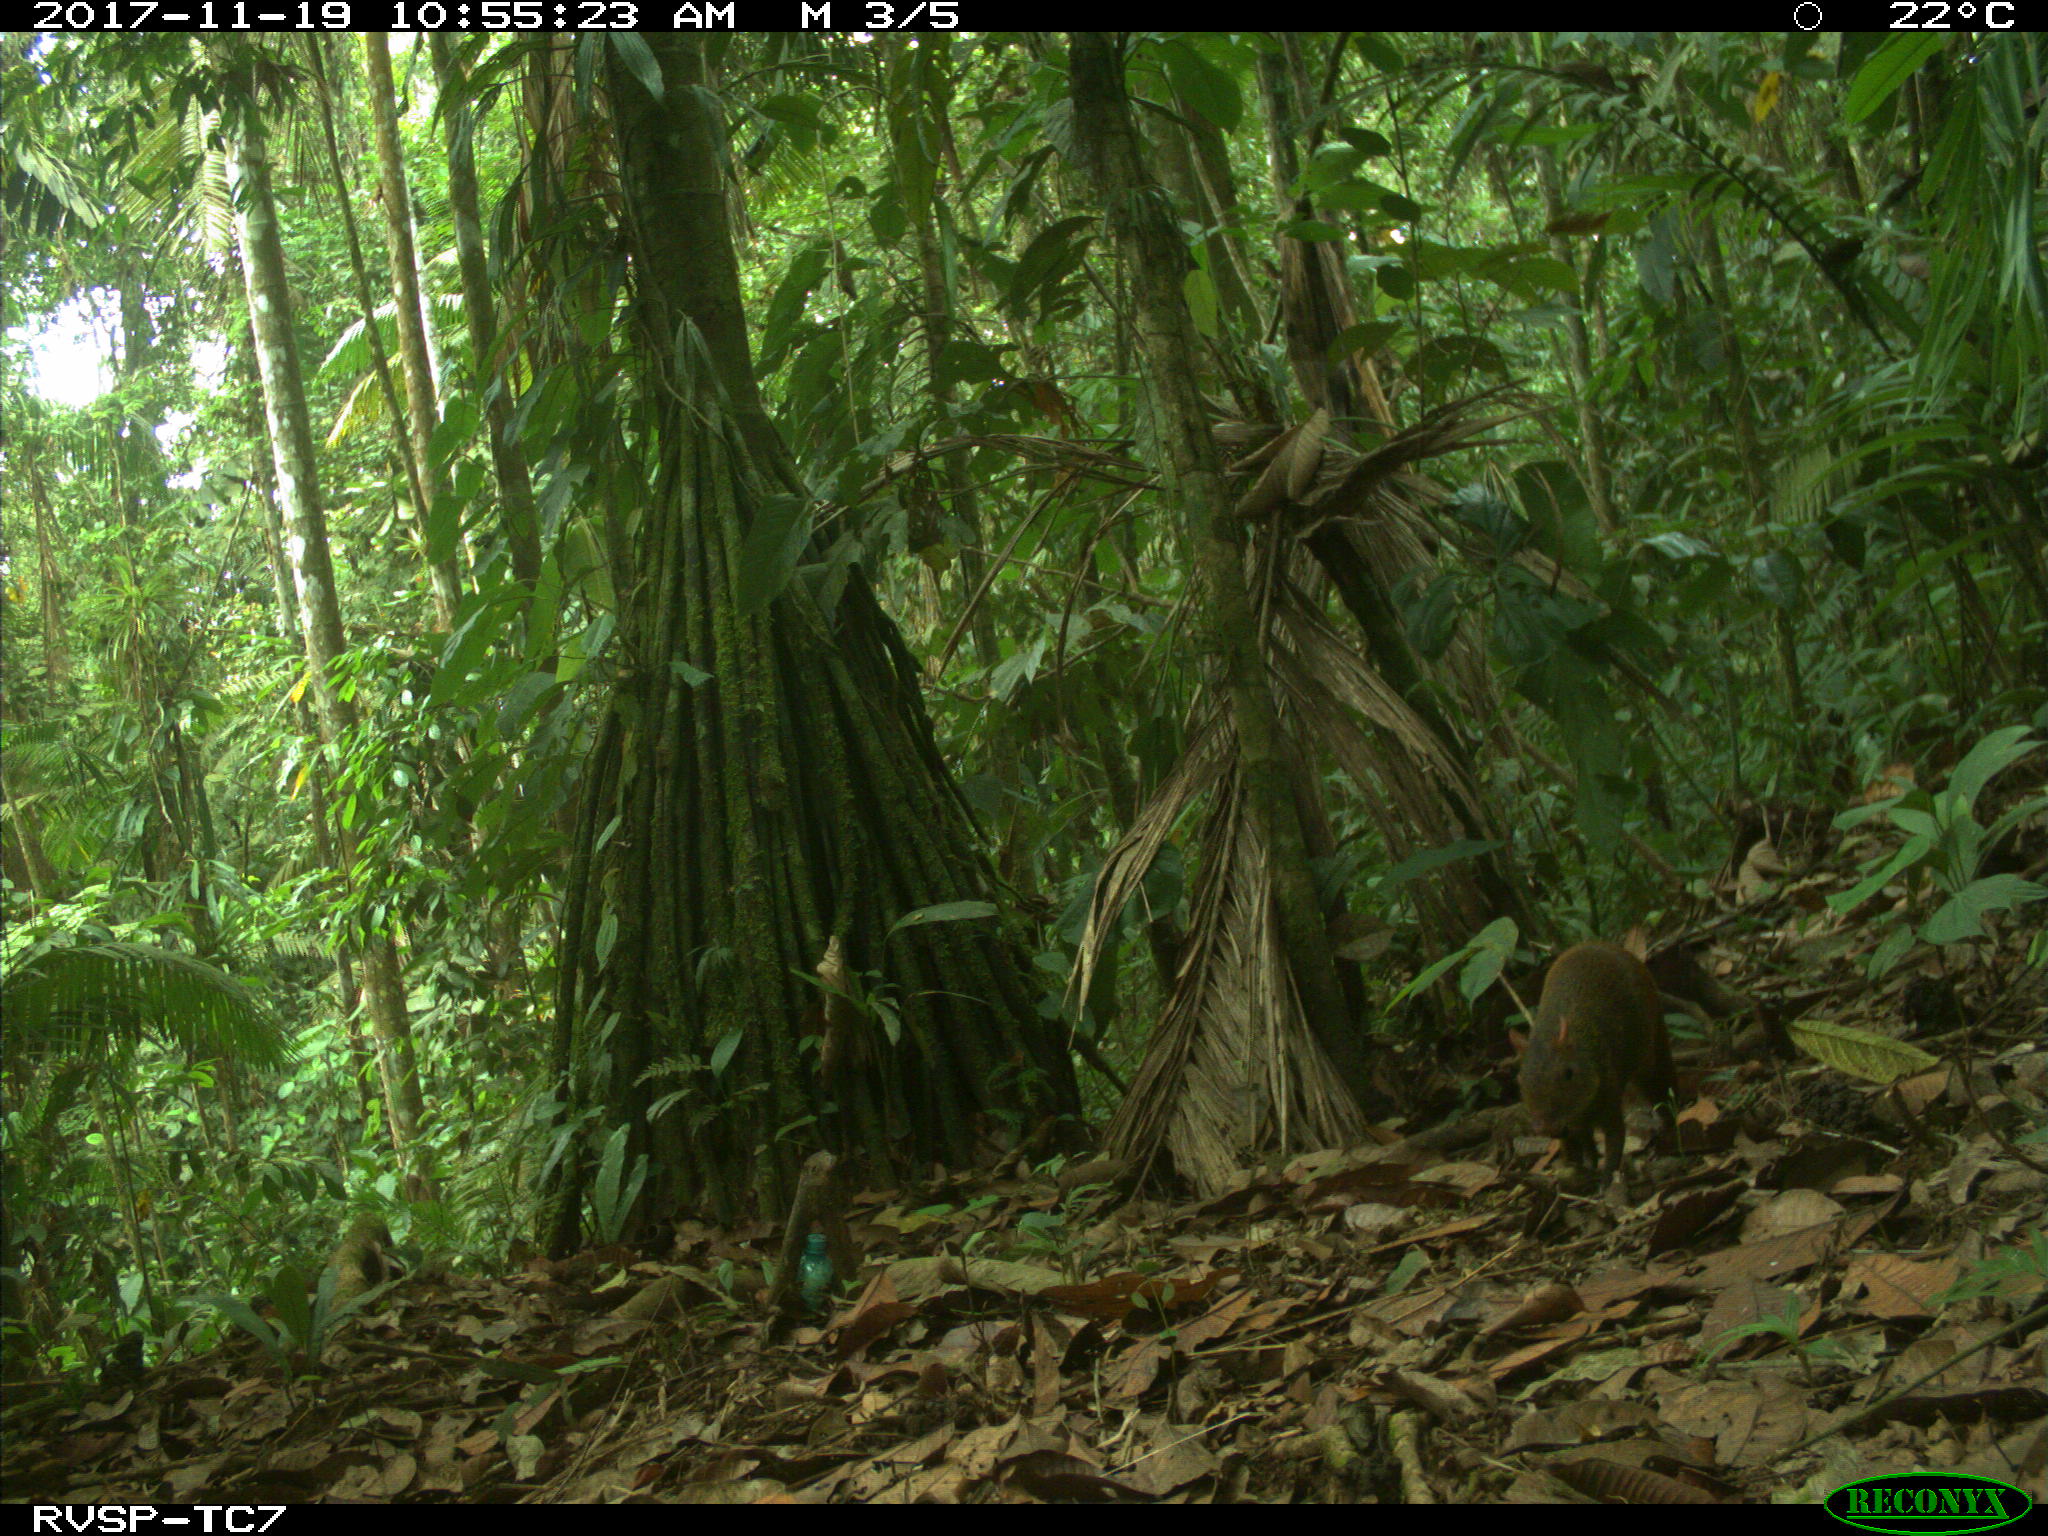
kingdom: Animalia
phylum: Chordata
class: Mammalia
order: Rodentia
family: Dasyproctidae
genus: Dasyprocta
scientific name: Dasyprocta punctata
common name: Central american agouti
